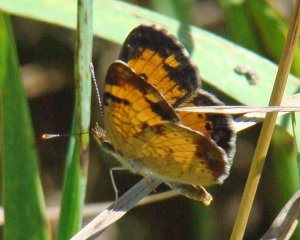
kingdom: Animalia
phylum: Arthropoda
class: Insecta
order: Lepidoptera
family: Nymphalidae
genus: Phyciodes
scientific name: Phyciodes tharos
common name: Northern Crescent
